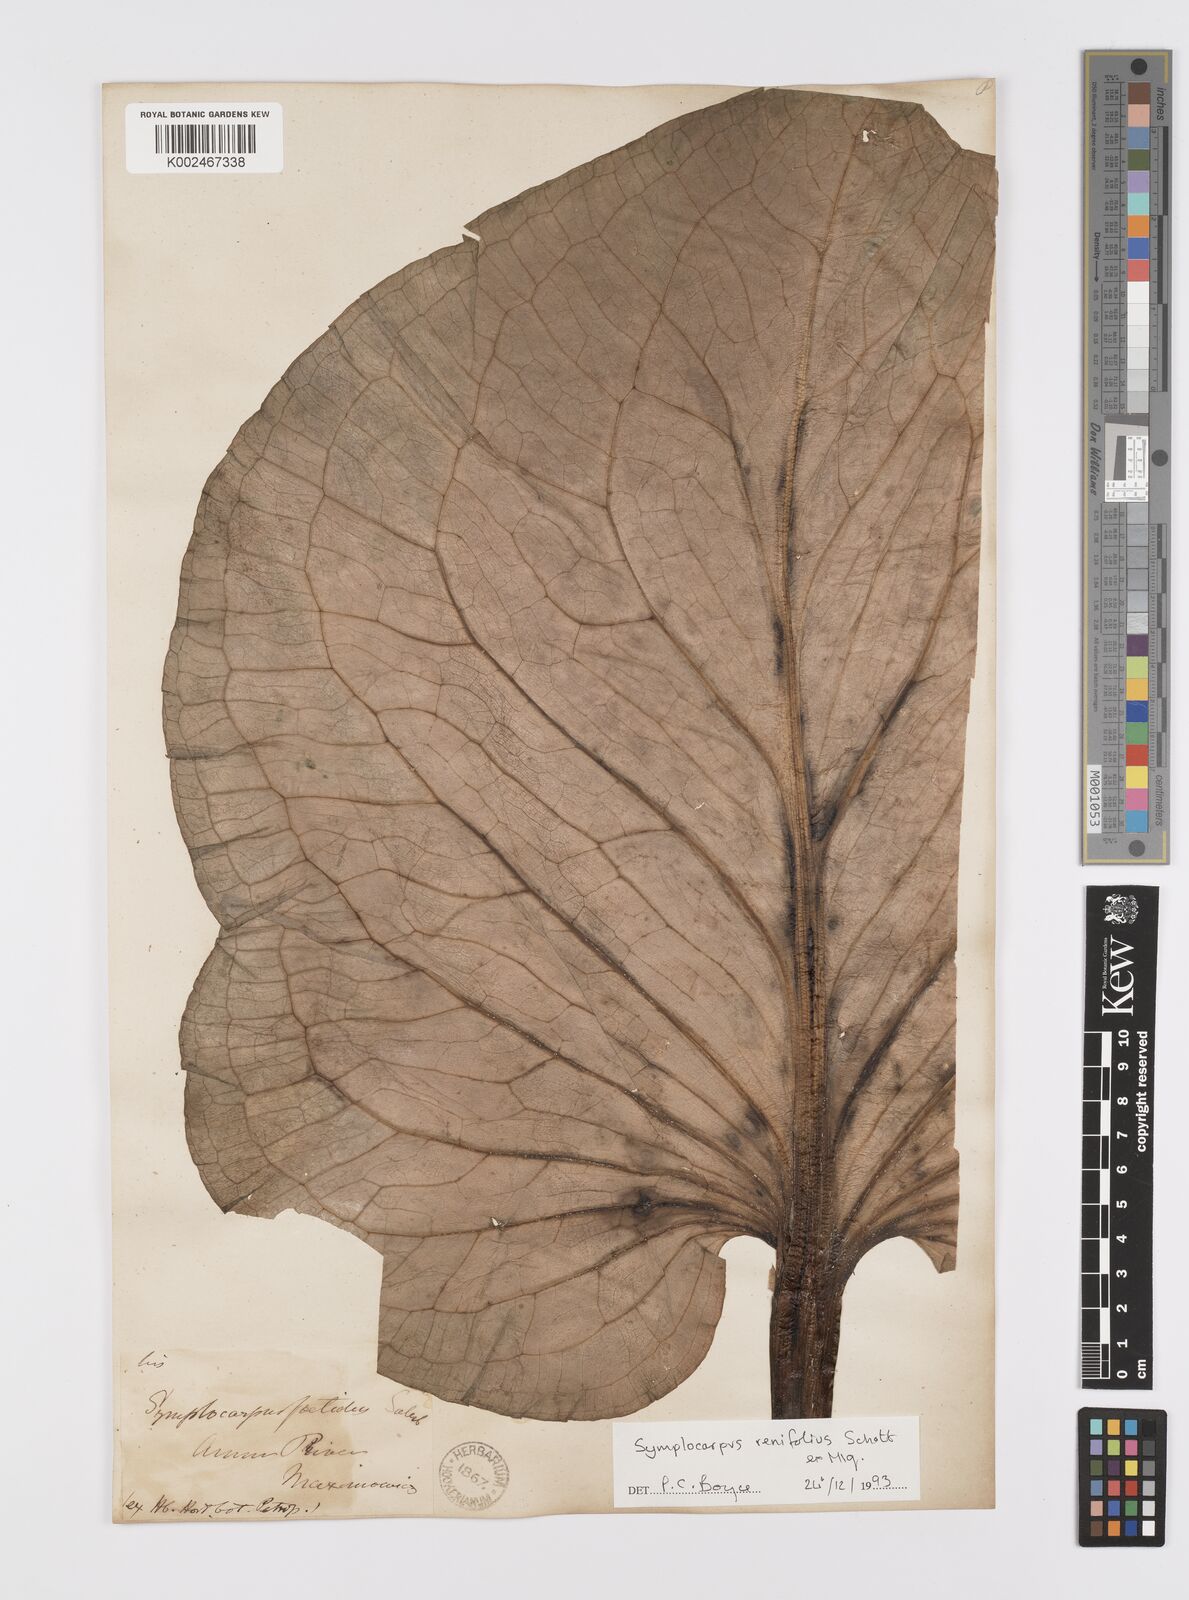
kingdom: Plantae
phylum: Tracheophyta
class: Liliopsida
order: Alismatales
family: Araceae
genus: Symplocarpus
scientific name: Symplocarpus renifolius
